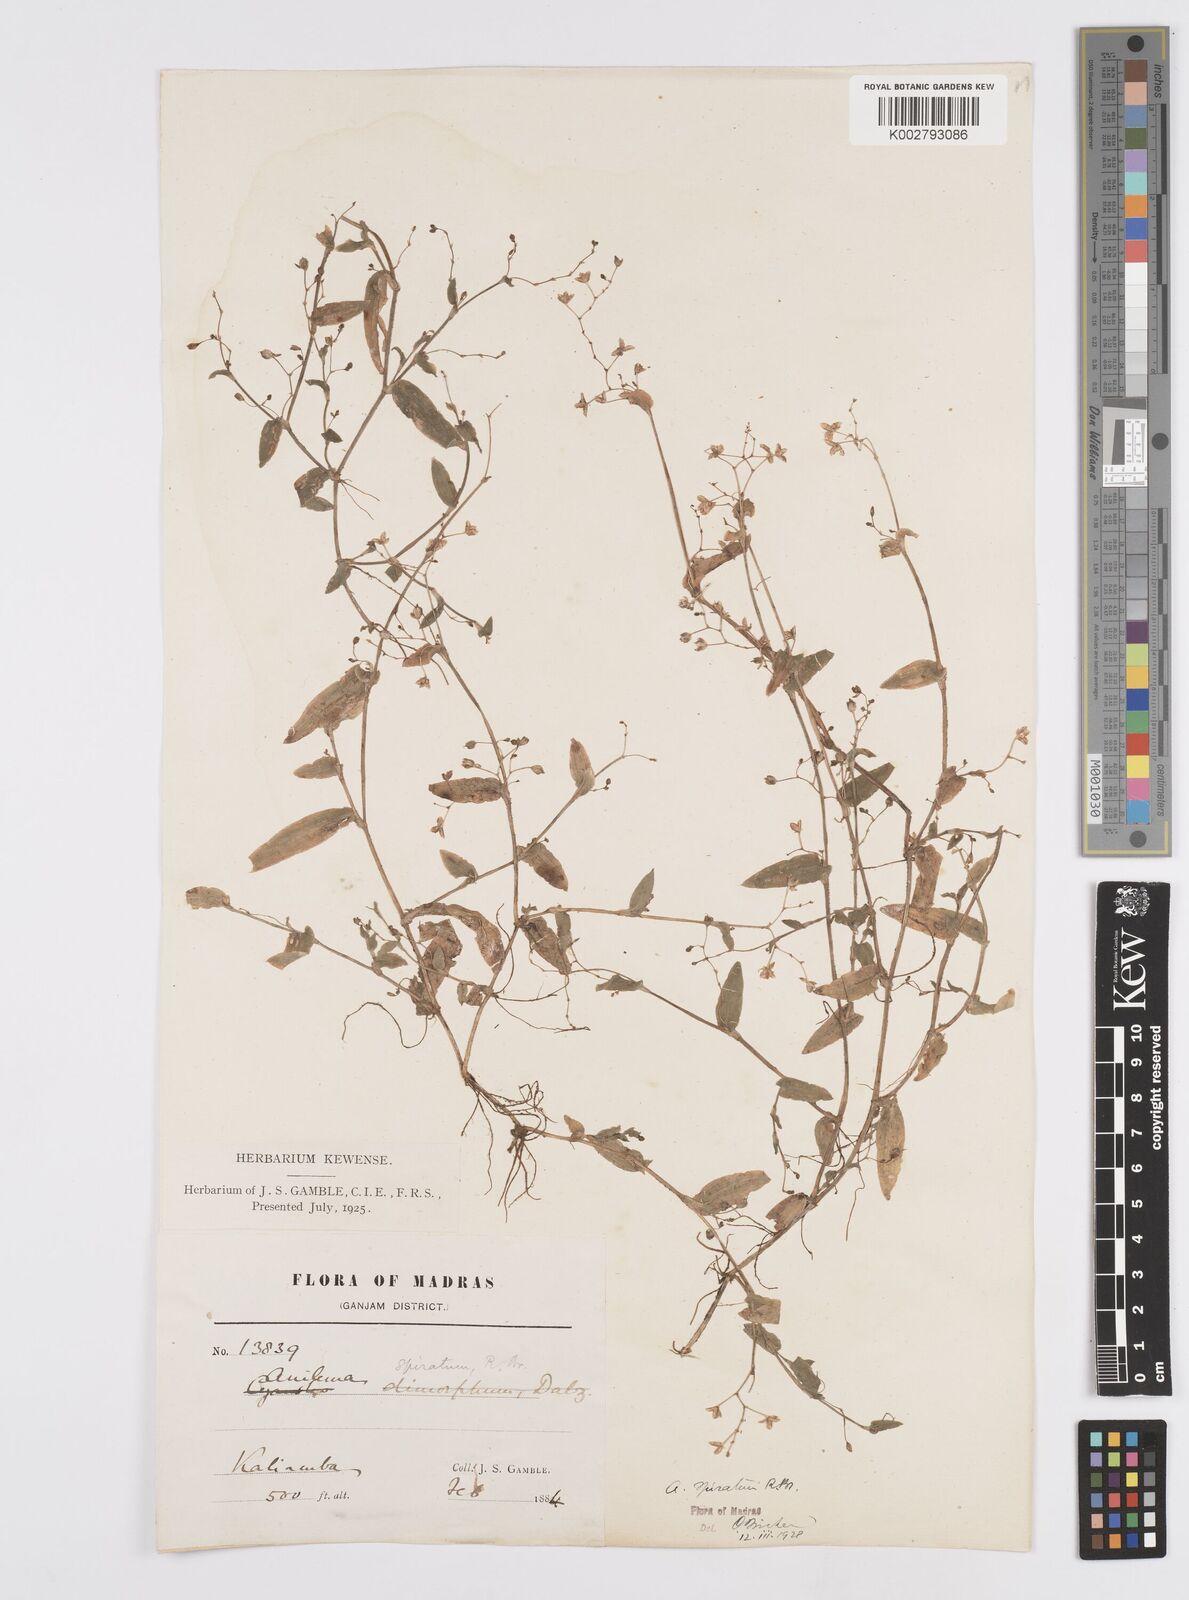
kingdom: Plantae
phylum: Tracheophyta
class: Liliopsida
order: Commelinales
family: Commelinaceae
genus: Murdannia
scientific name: Murdannia spirata
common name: Asiatic dewflower
